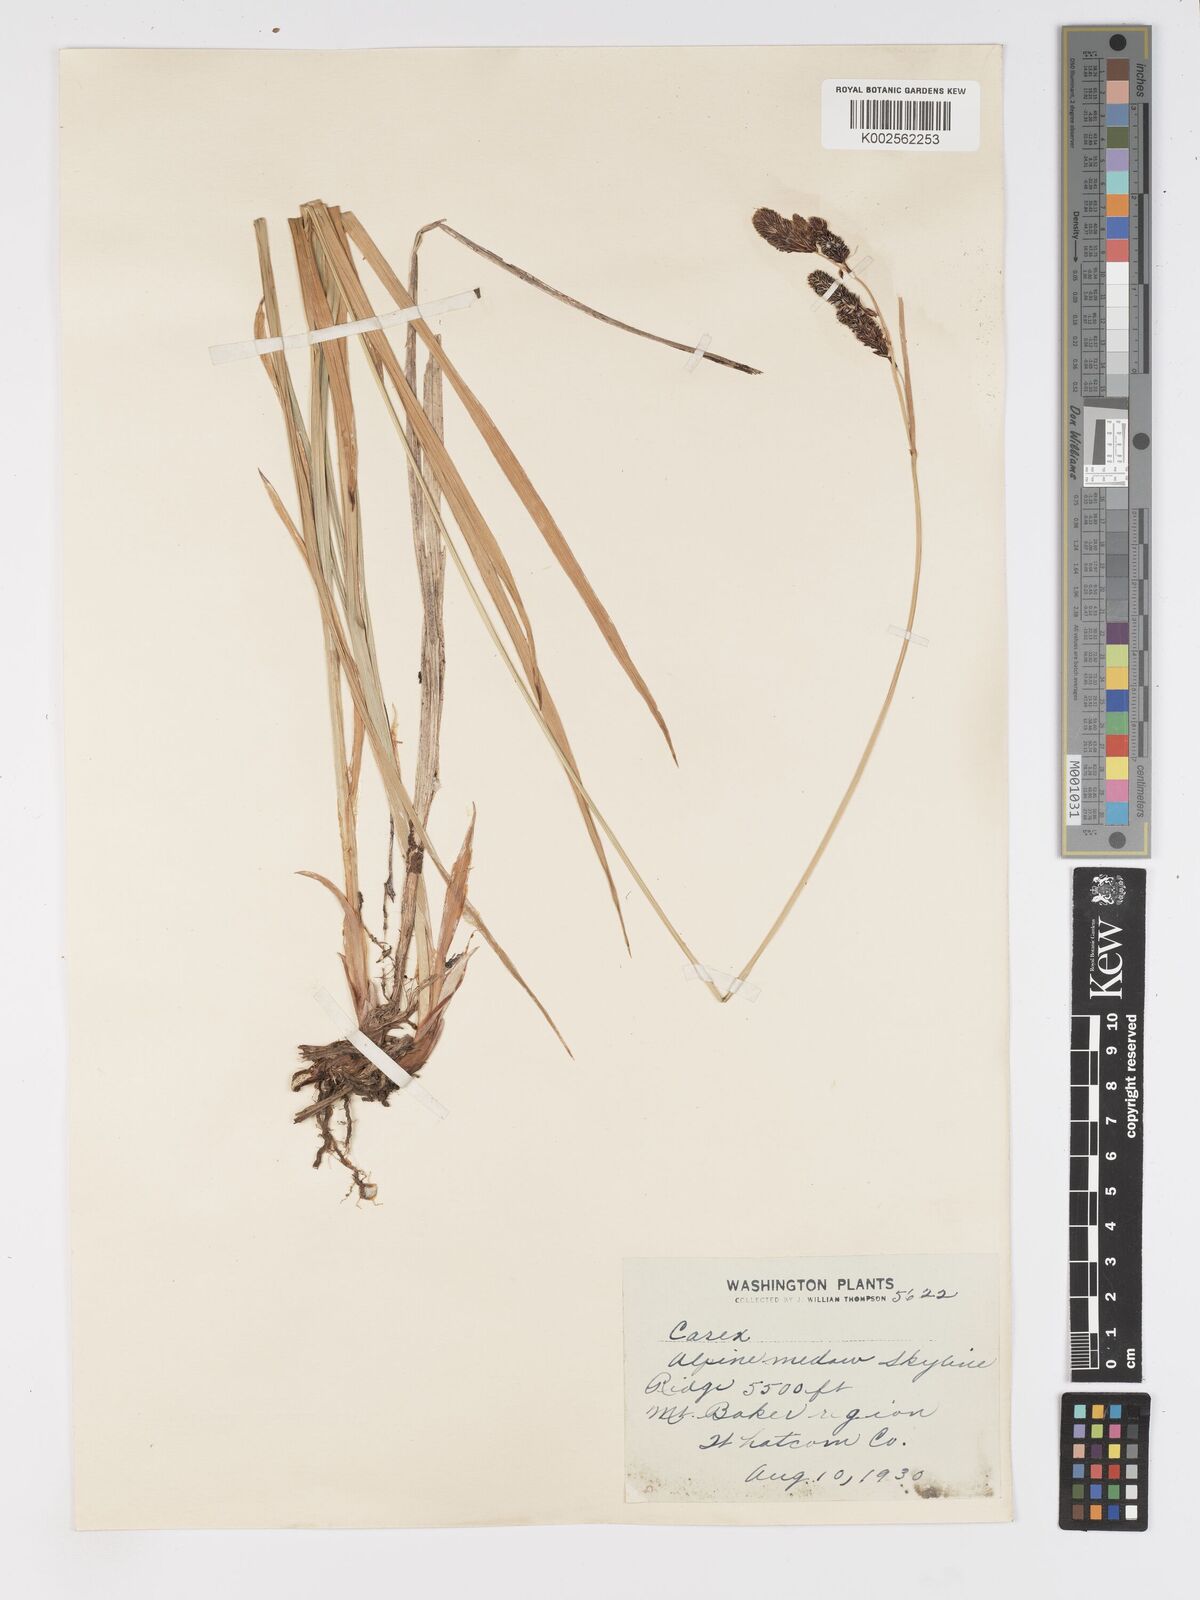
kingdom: Plantae
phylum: Tracheophyta
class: Liliopsida
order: Poales
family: Cyperaceae
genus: Carex
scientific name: Carex nebrascensis
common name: Nebraska sedge
